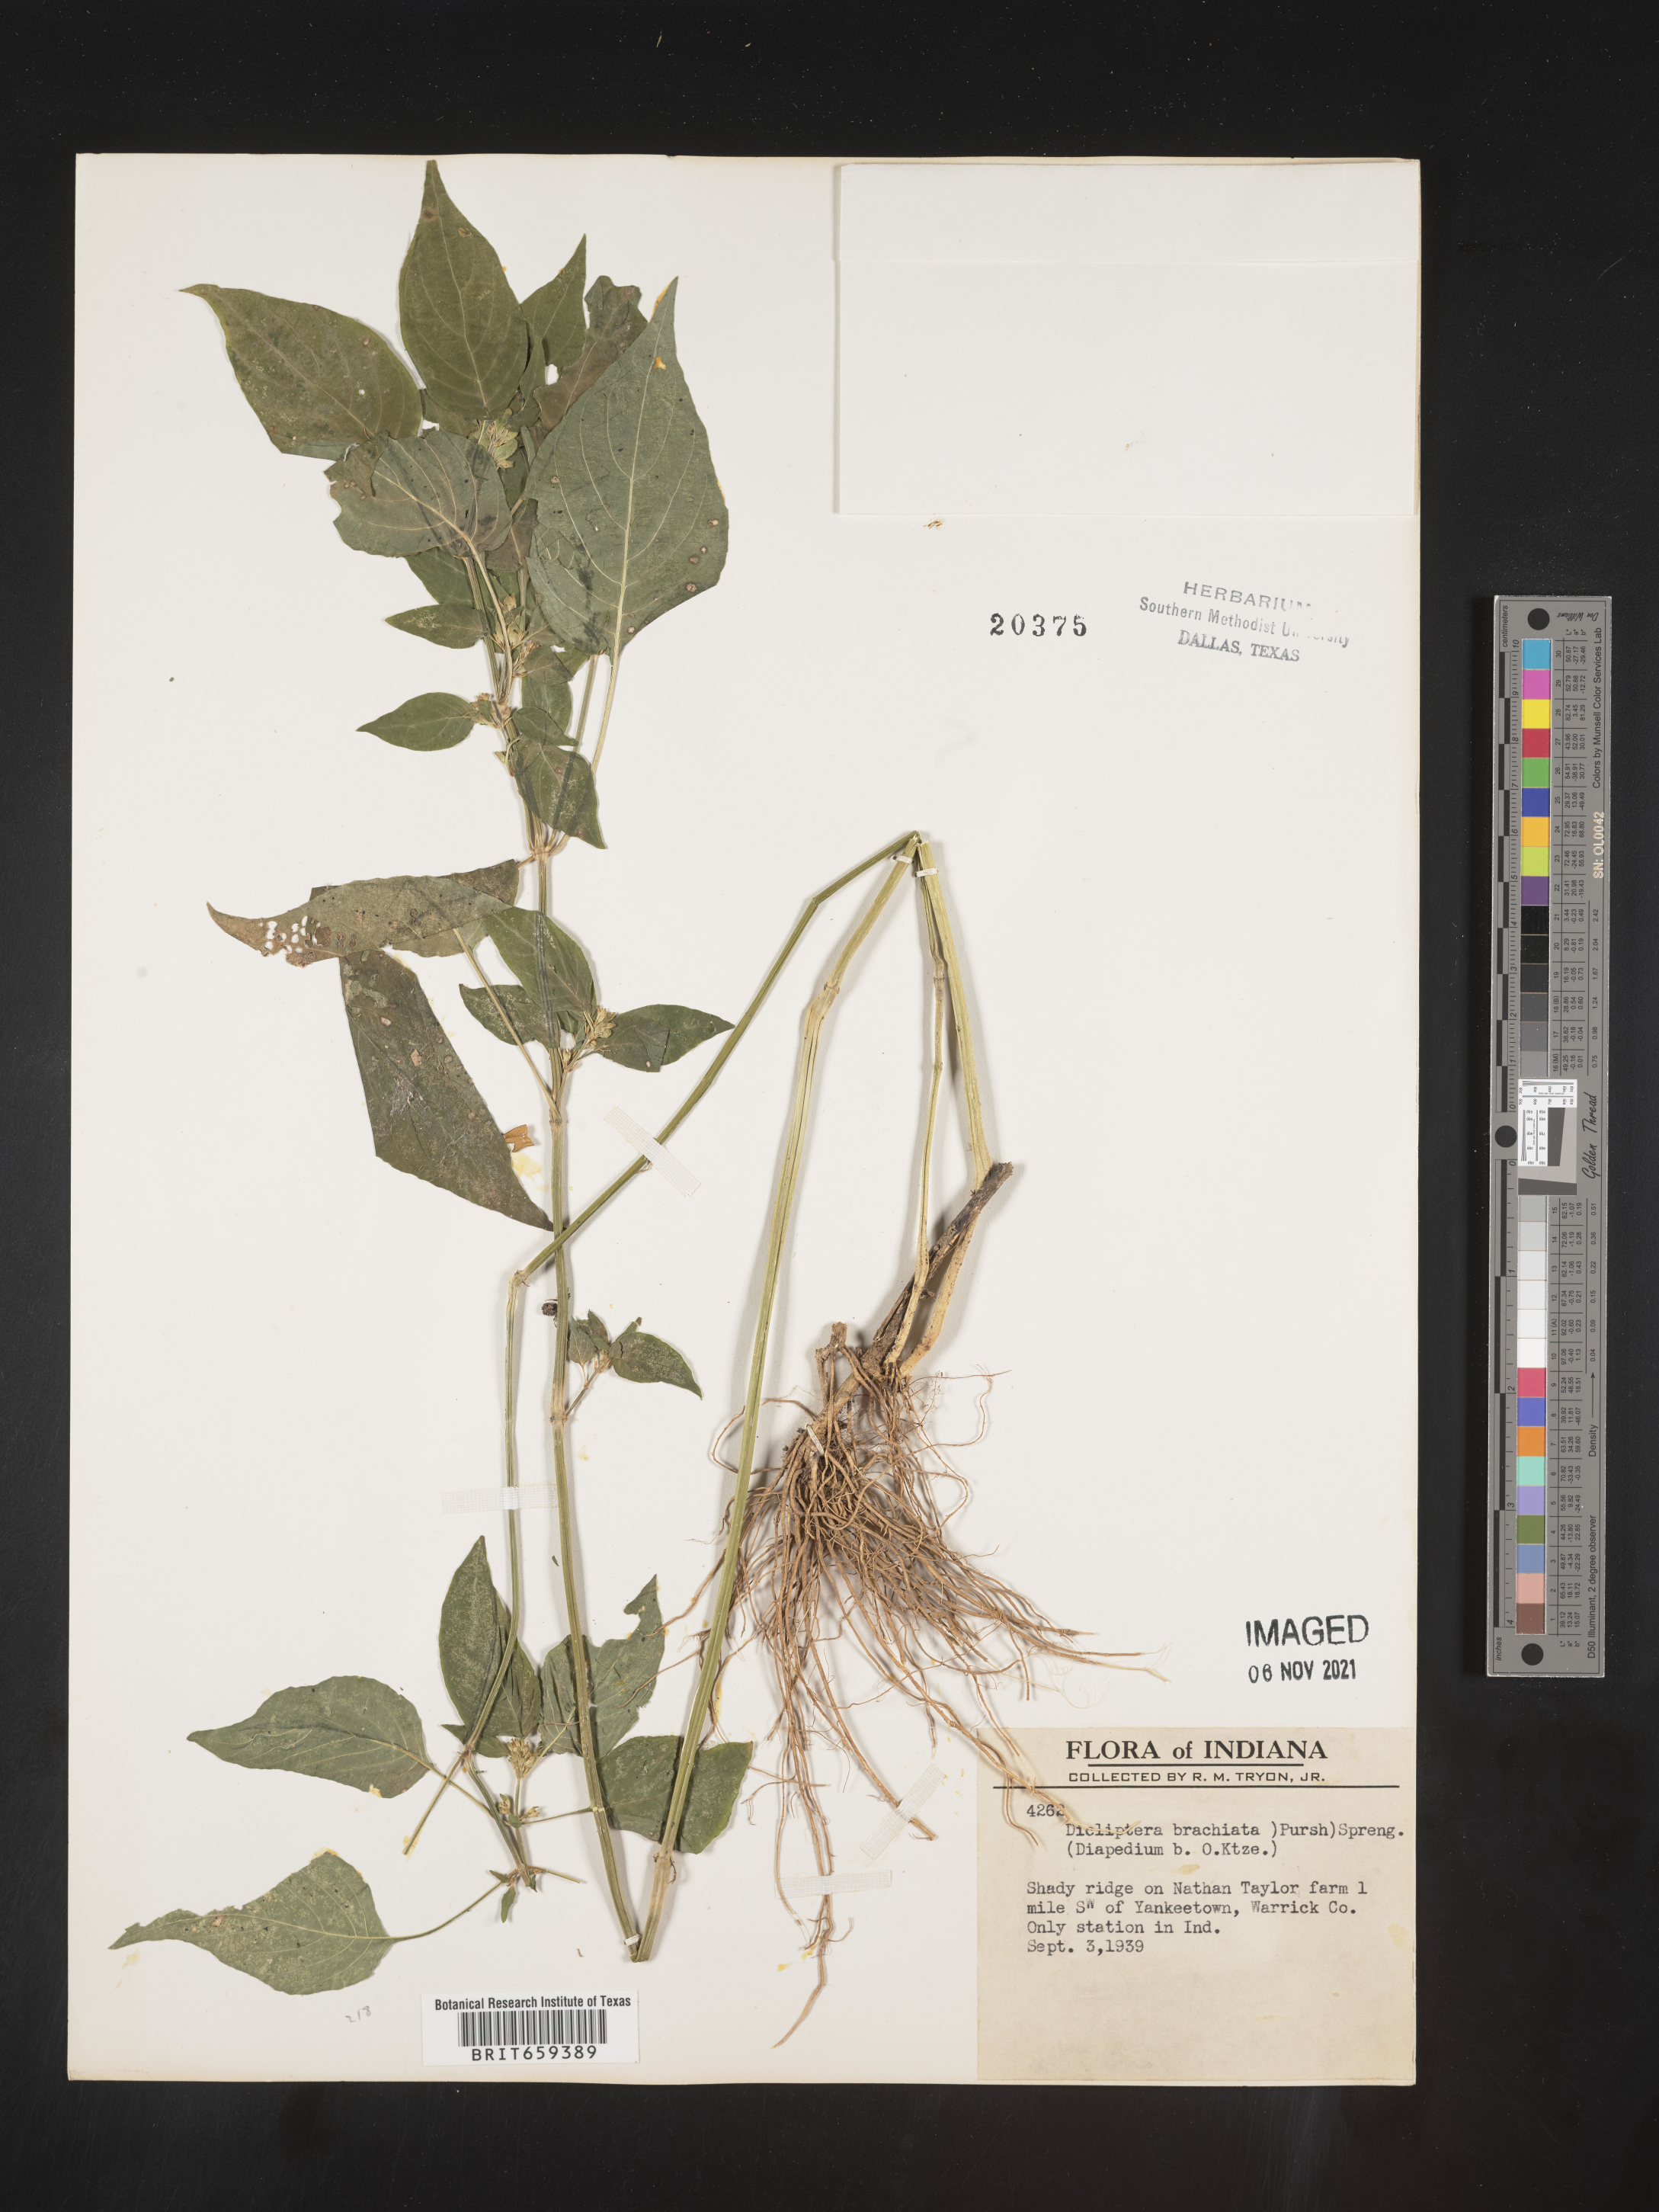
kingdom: Plantae
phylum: Tracheophyta
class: Magnoliopsida
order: Lamiales
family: Acanthaceae
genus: Dicliptera
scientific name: Dicliptera brachiata
